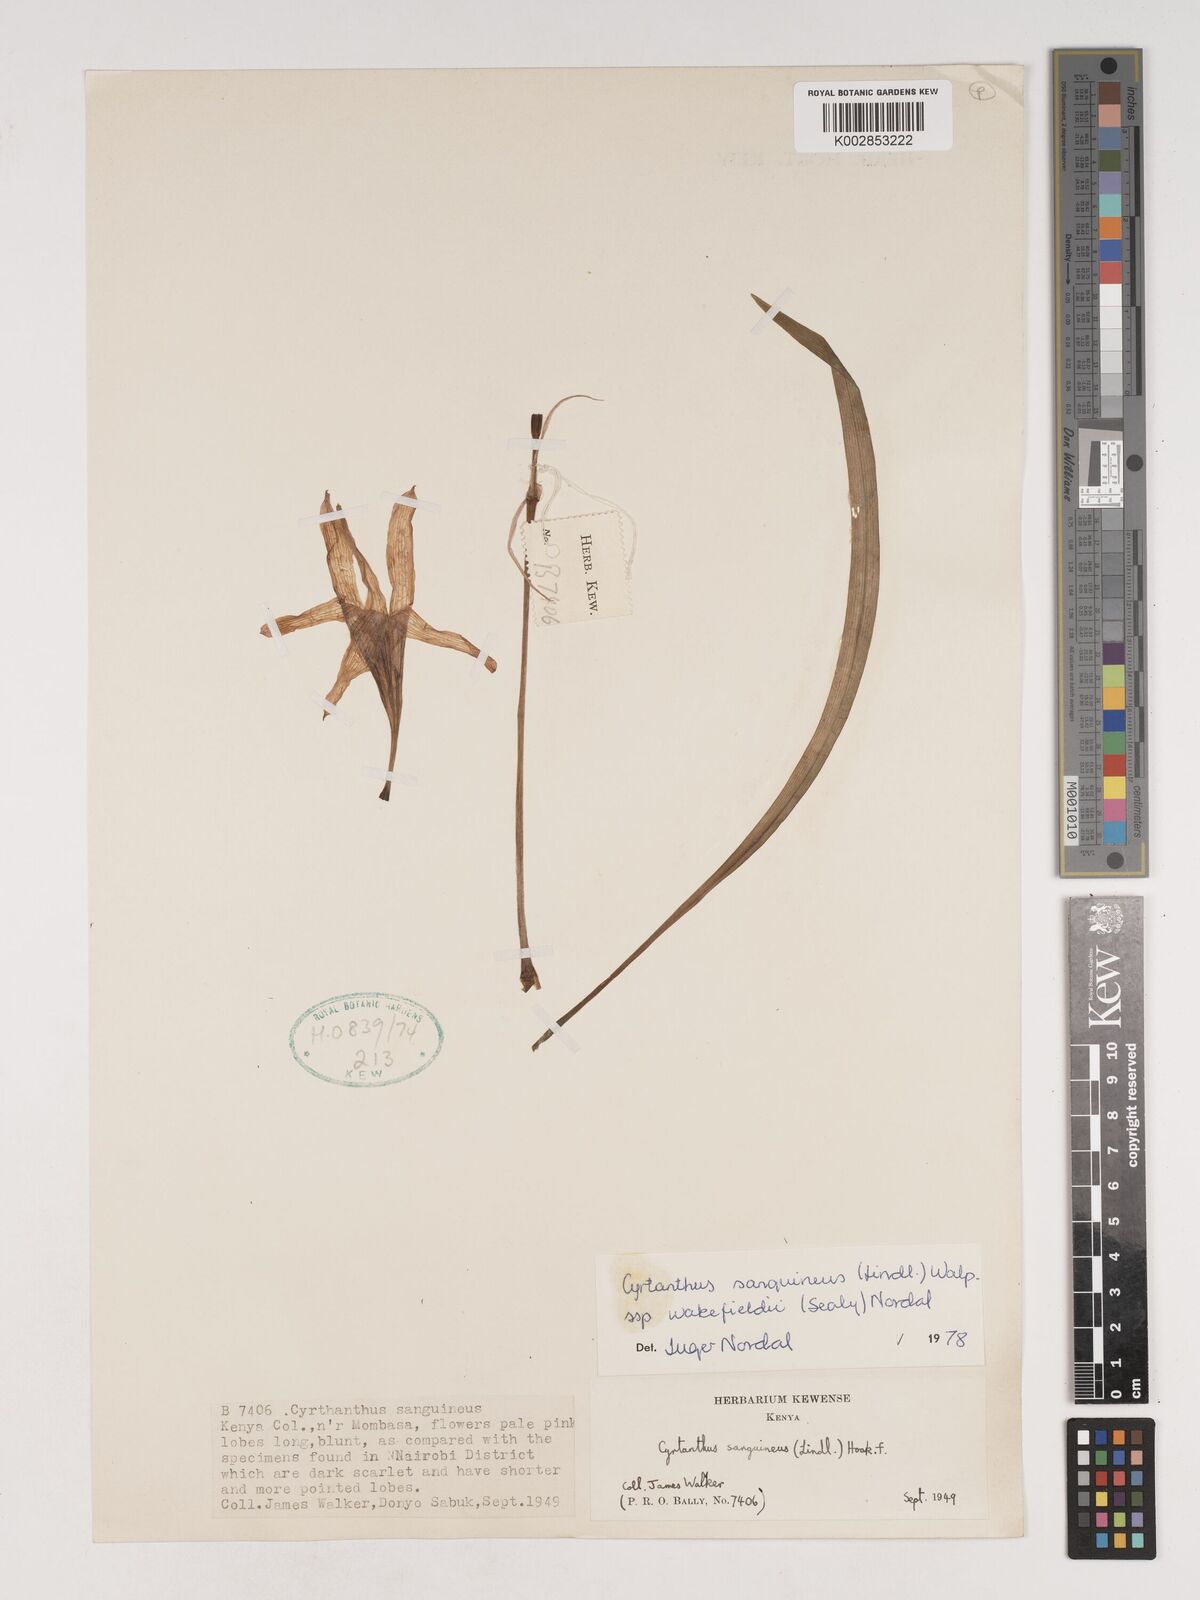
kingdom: Plantae
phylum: Tracheophyta
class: Liliopsida
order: Asparagales
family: Amaryllidaceae
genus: Cyrtanthus
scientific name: Cyrtanthus sanguineus
